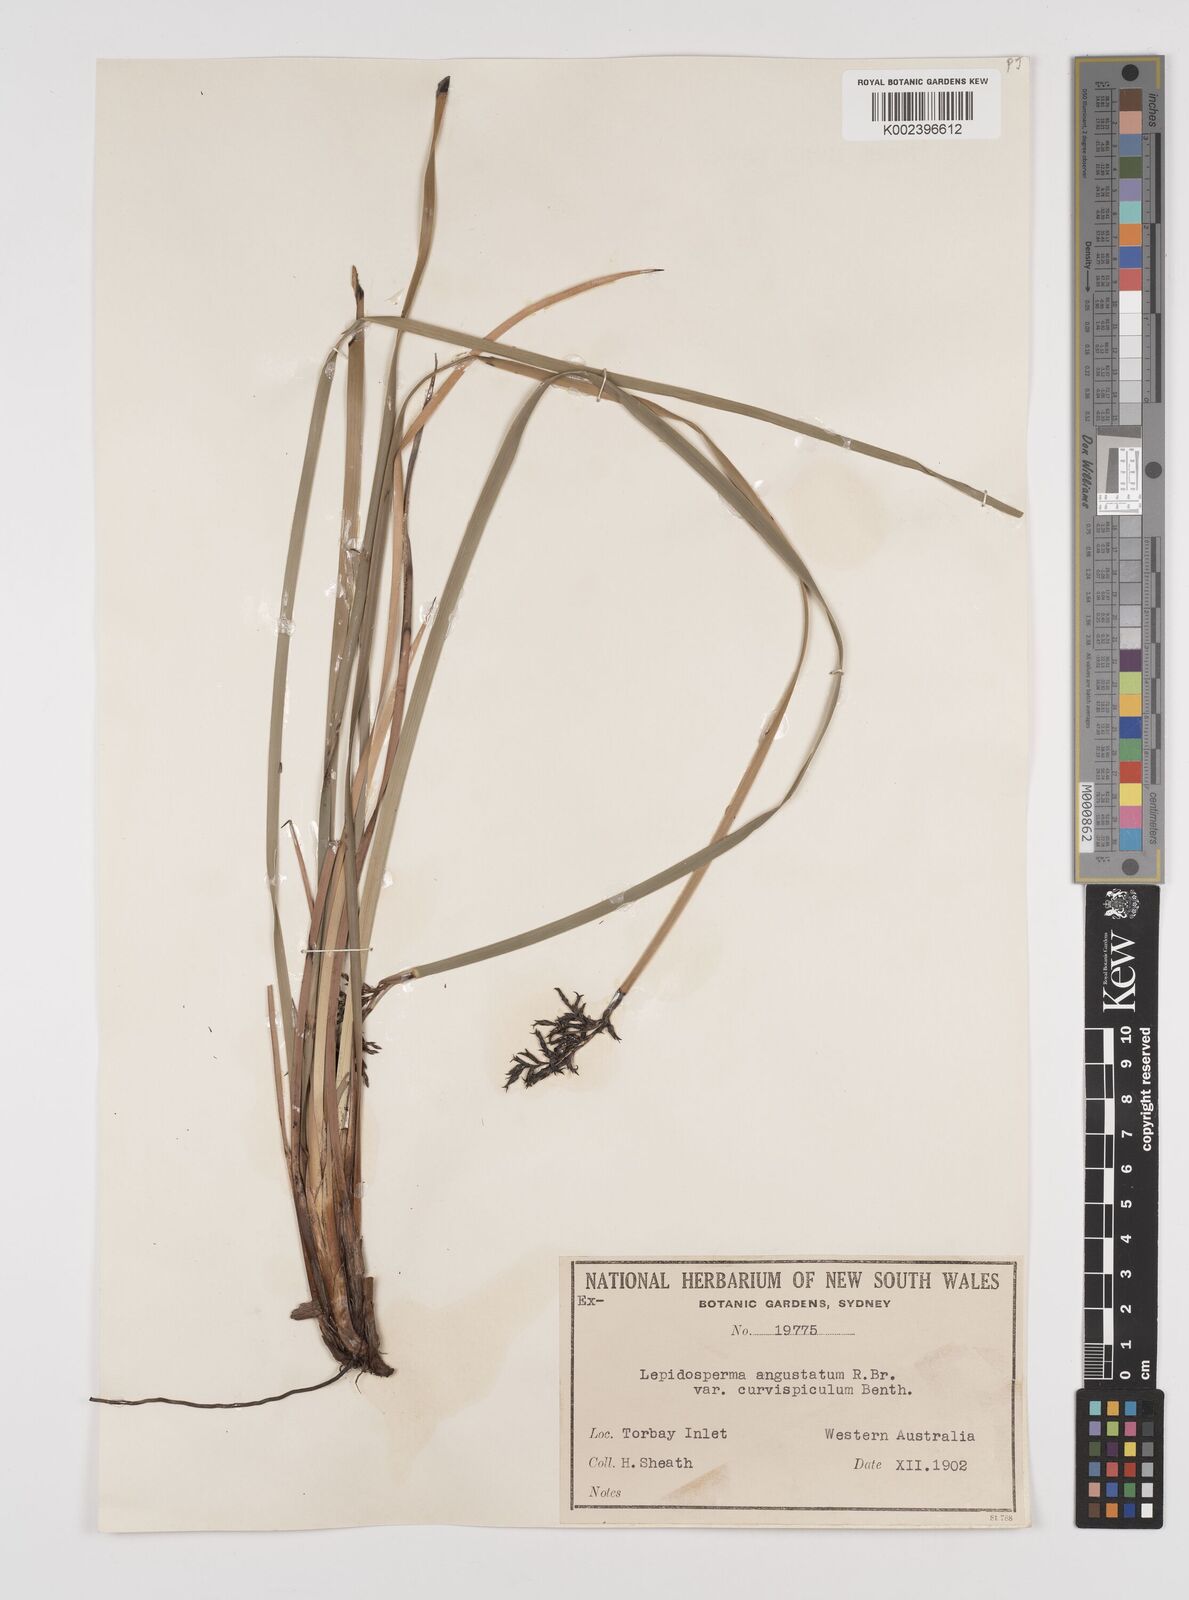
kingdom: Plantae
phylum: Tracheophyta
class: Liliopsida
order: Poales
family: Cyperaceae
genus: Lepidosperma
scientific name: Lepidosperma angustatum
